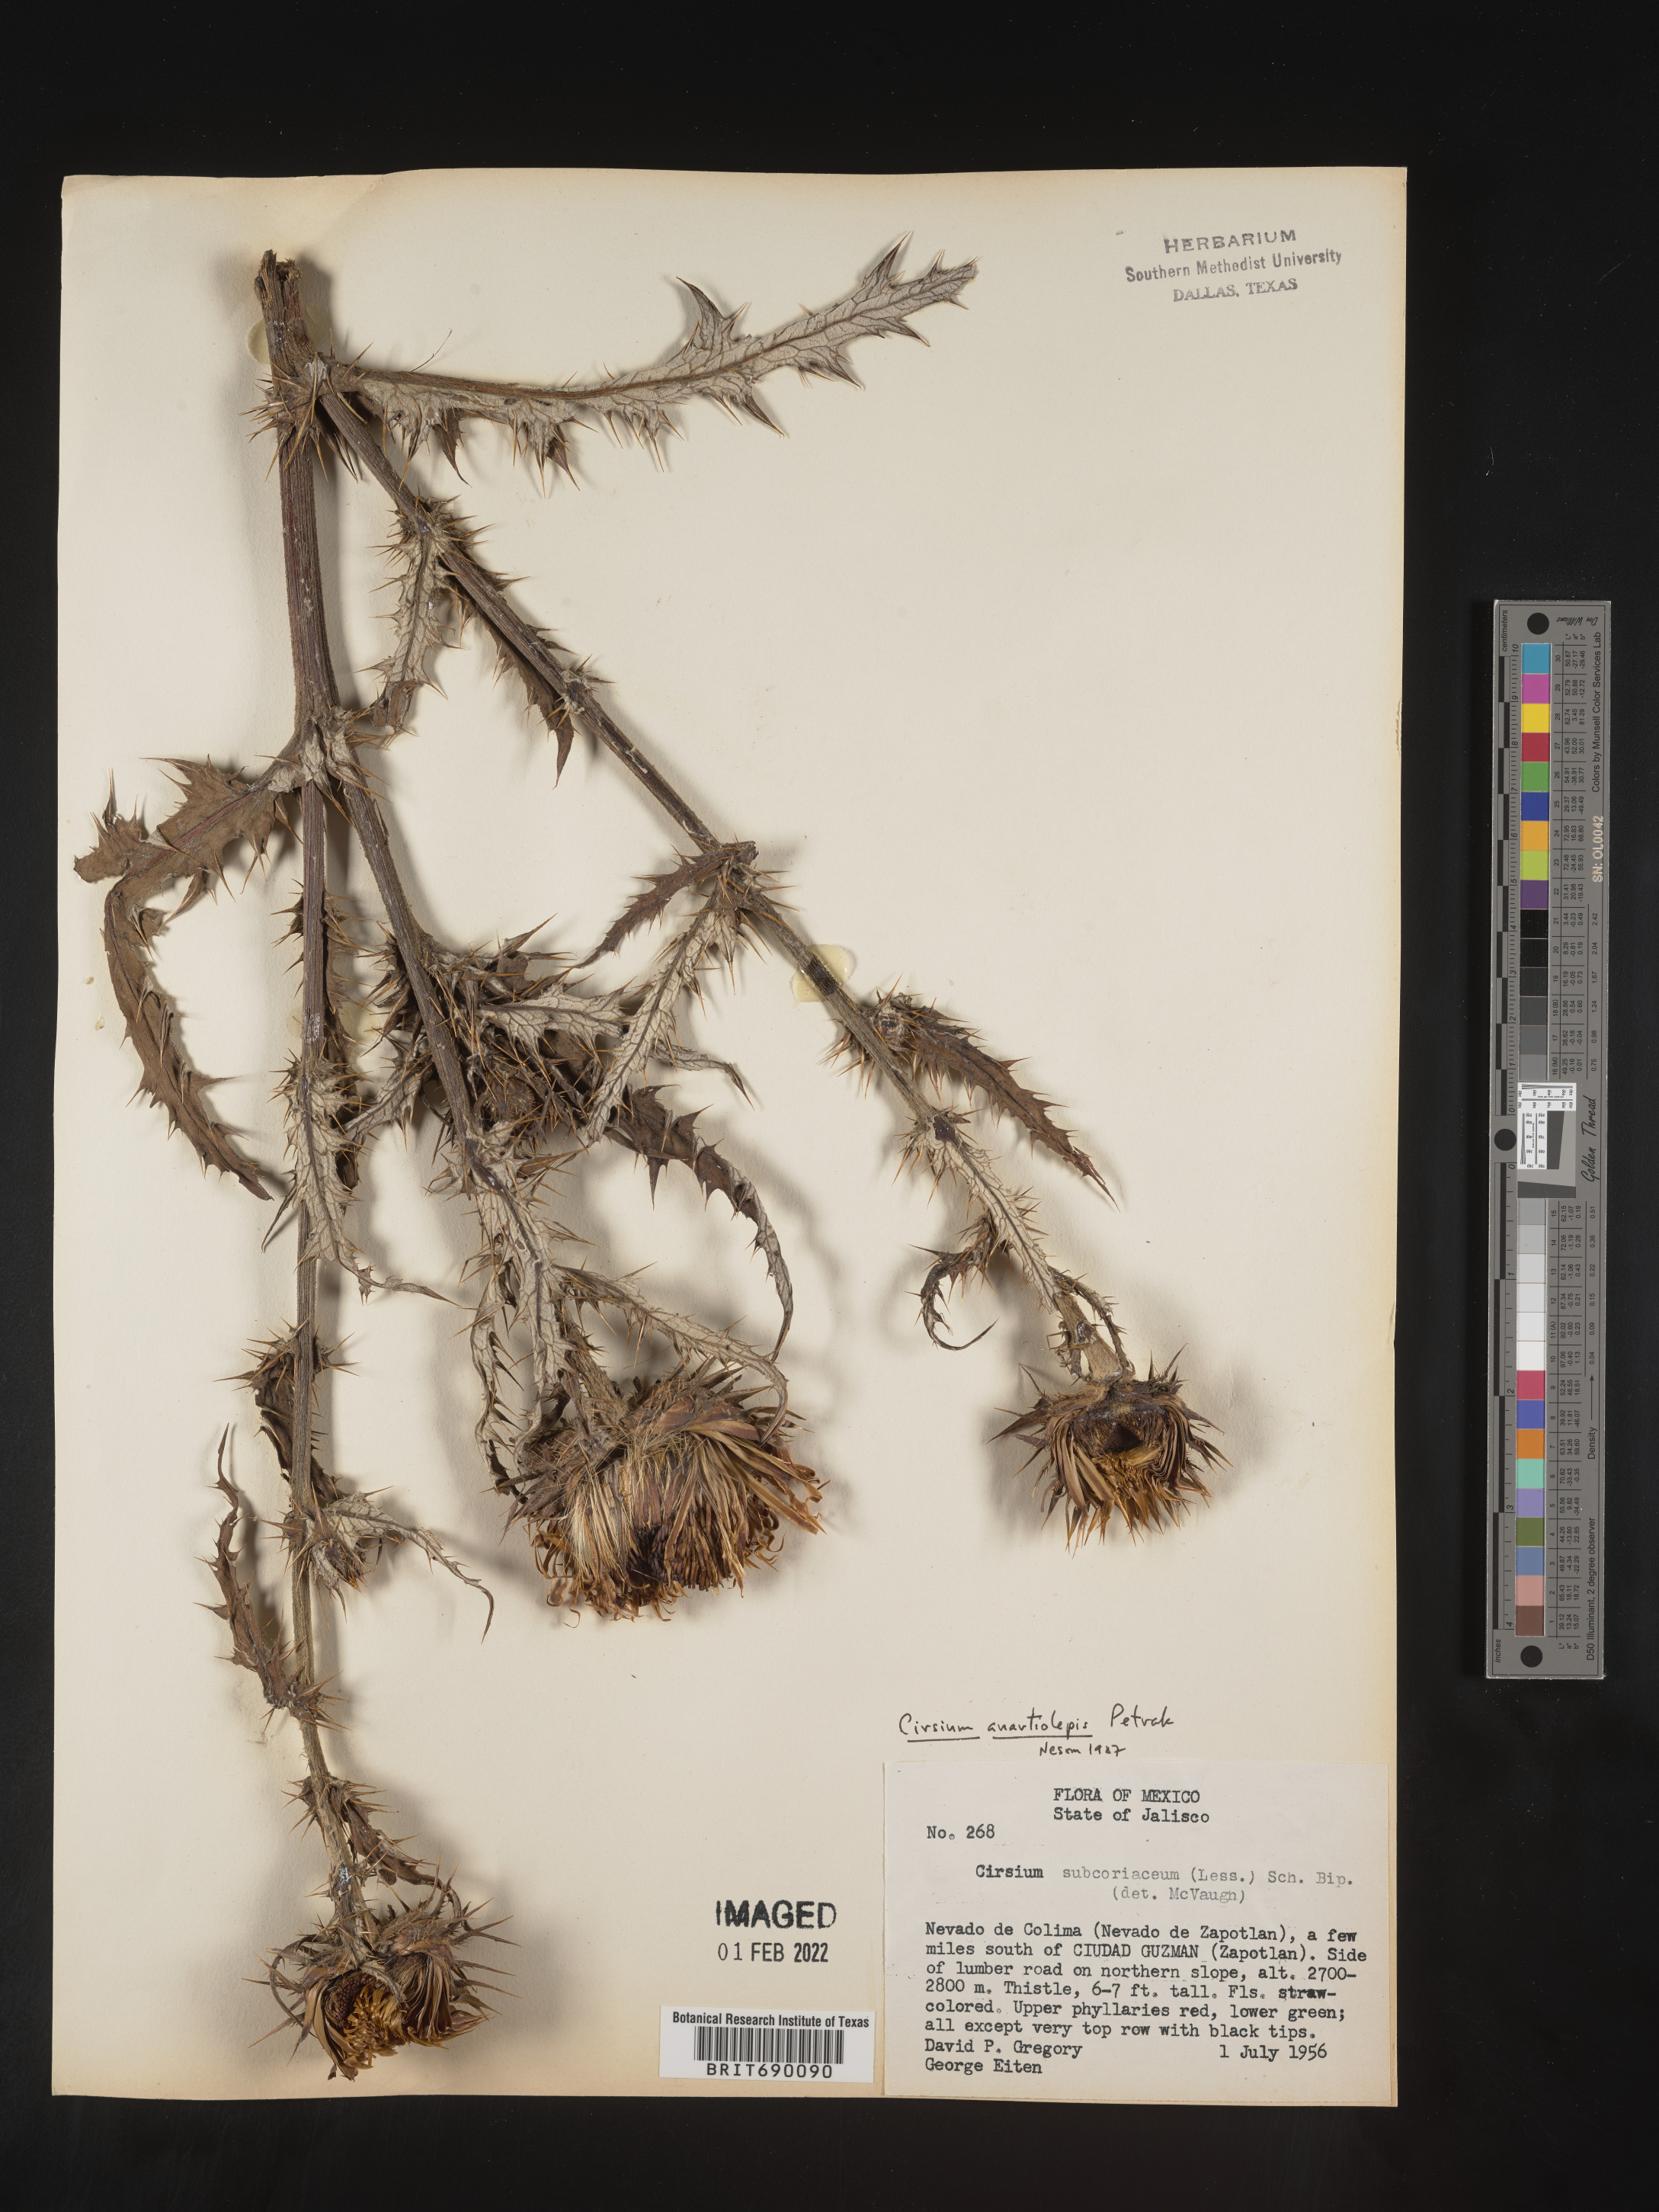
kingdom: Plantae
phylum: Tracheophyta
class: Magnoliopsida
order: Asterales
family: Asteraceae
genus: Cirsium
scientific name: Cirsium
